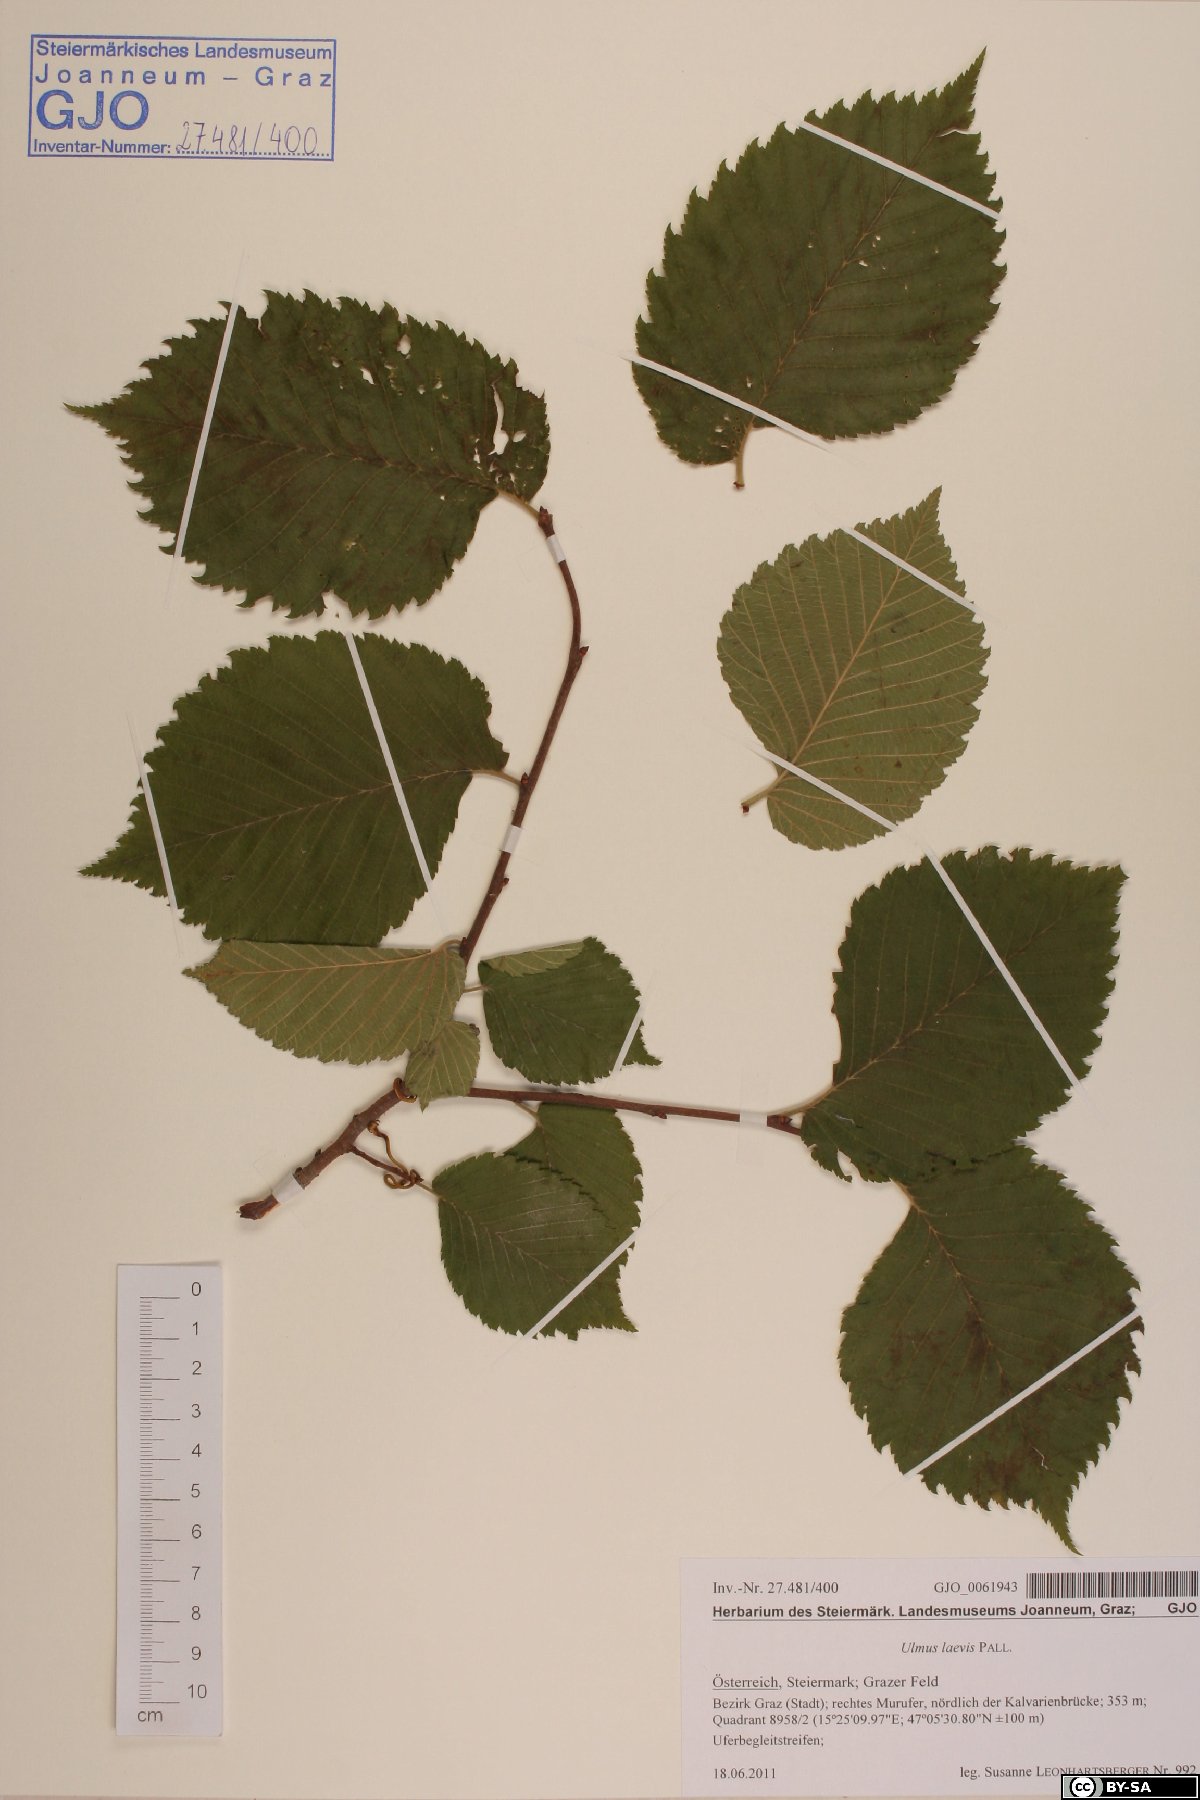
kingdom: Plantae
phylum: Tracheophyta
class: Magnoliopsida
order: Rosales
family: Ulmaceae
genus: Ulmus
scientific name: Ulmus laevis
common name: European white-elm
